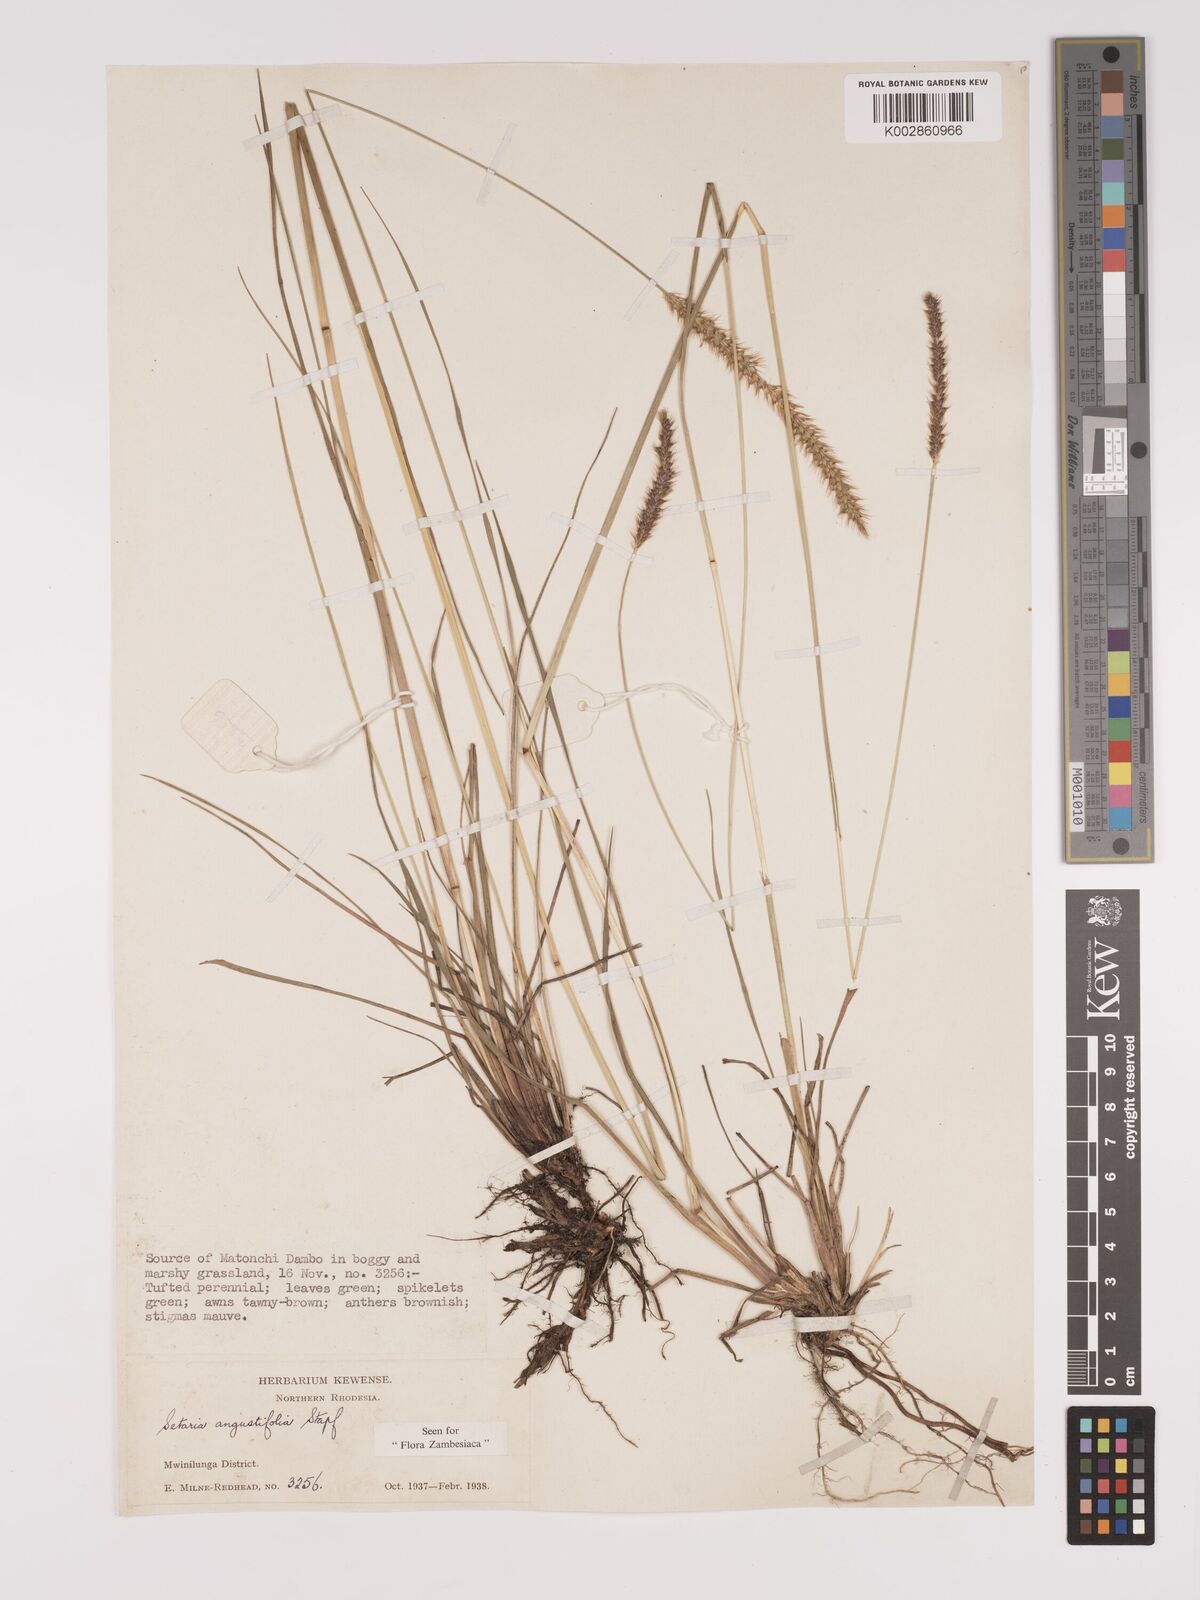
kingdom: Plantae
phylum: Tracheophyta
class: Liliopsida
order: Poales
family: Poaceae
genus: Setaria
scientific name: Setaria
